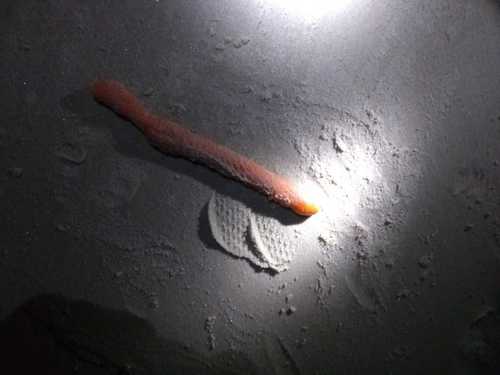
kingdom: Animalia
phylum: Cnidaria
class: Anthozoa
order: Scleralcyonacea
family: Veretillidae
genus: Veretillum
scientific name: Veretillum cynomorium
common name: Finger-shaped sea-pen
